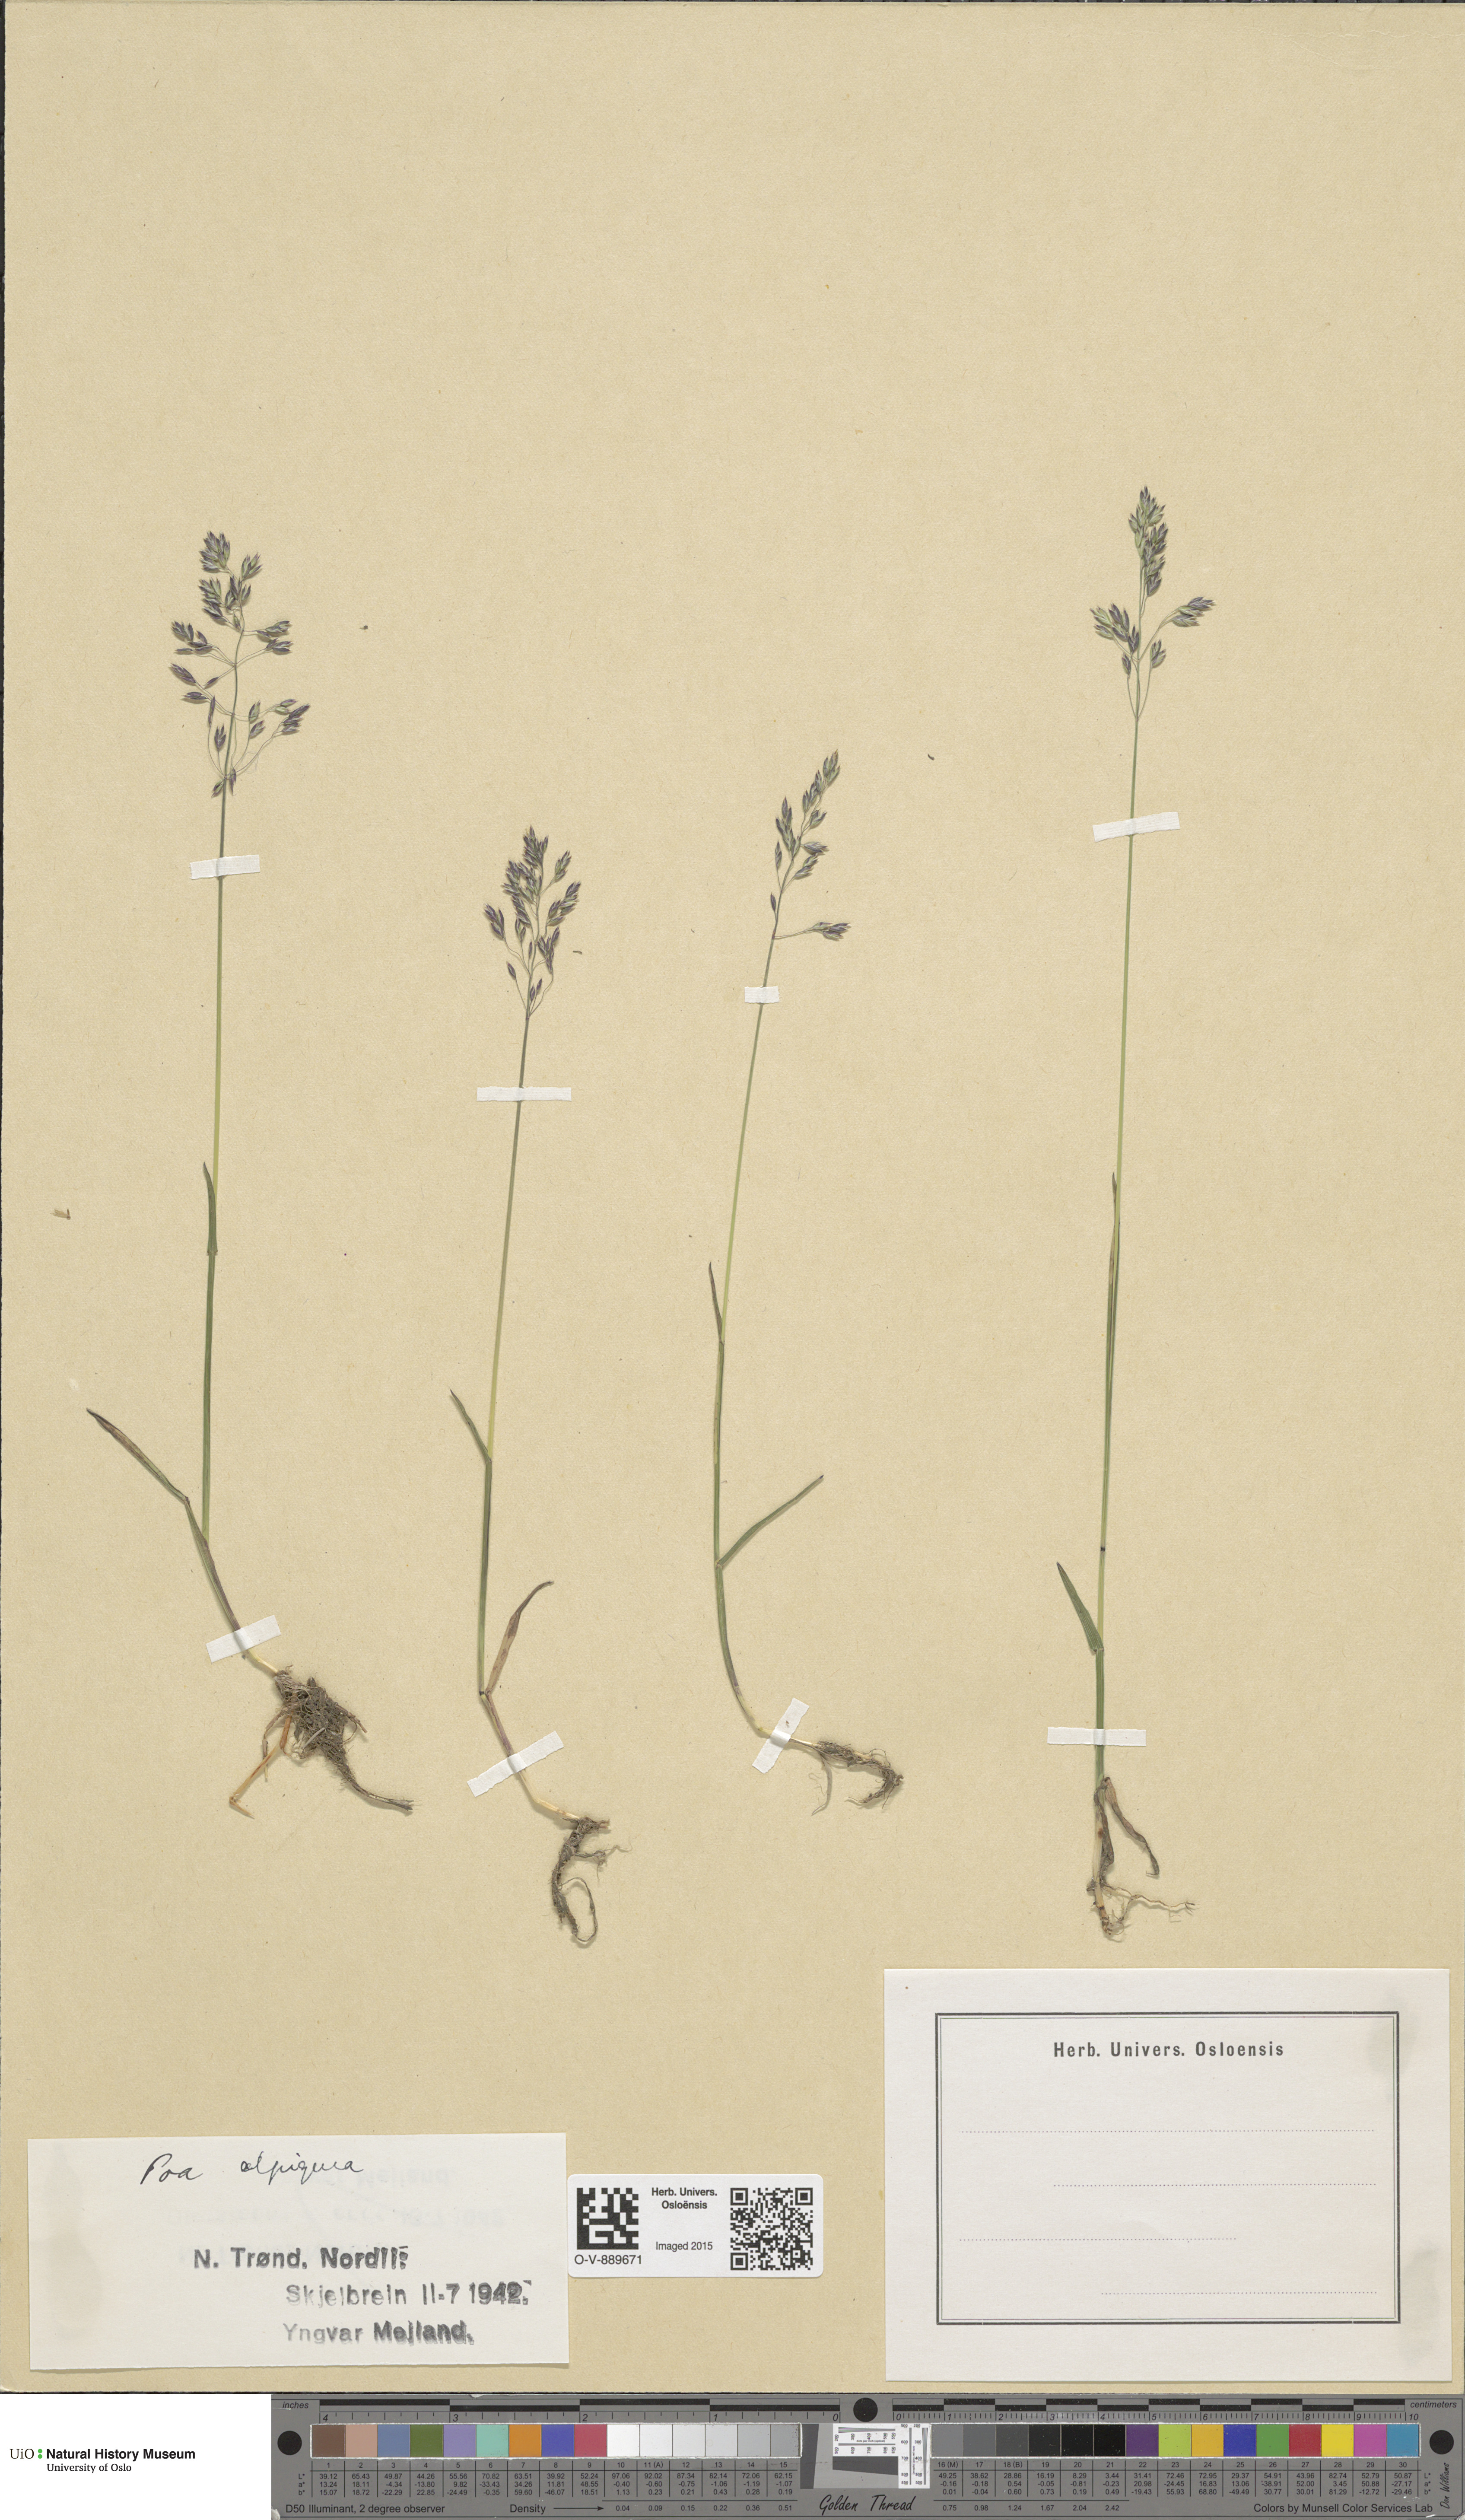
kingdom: Plantae
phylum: Tracheophyta
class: Liliopsida
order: Poales
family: Poaceae
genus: Poa
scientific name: Poa alpigena
